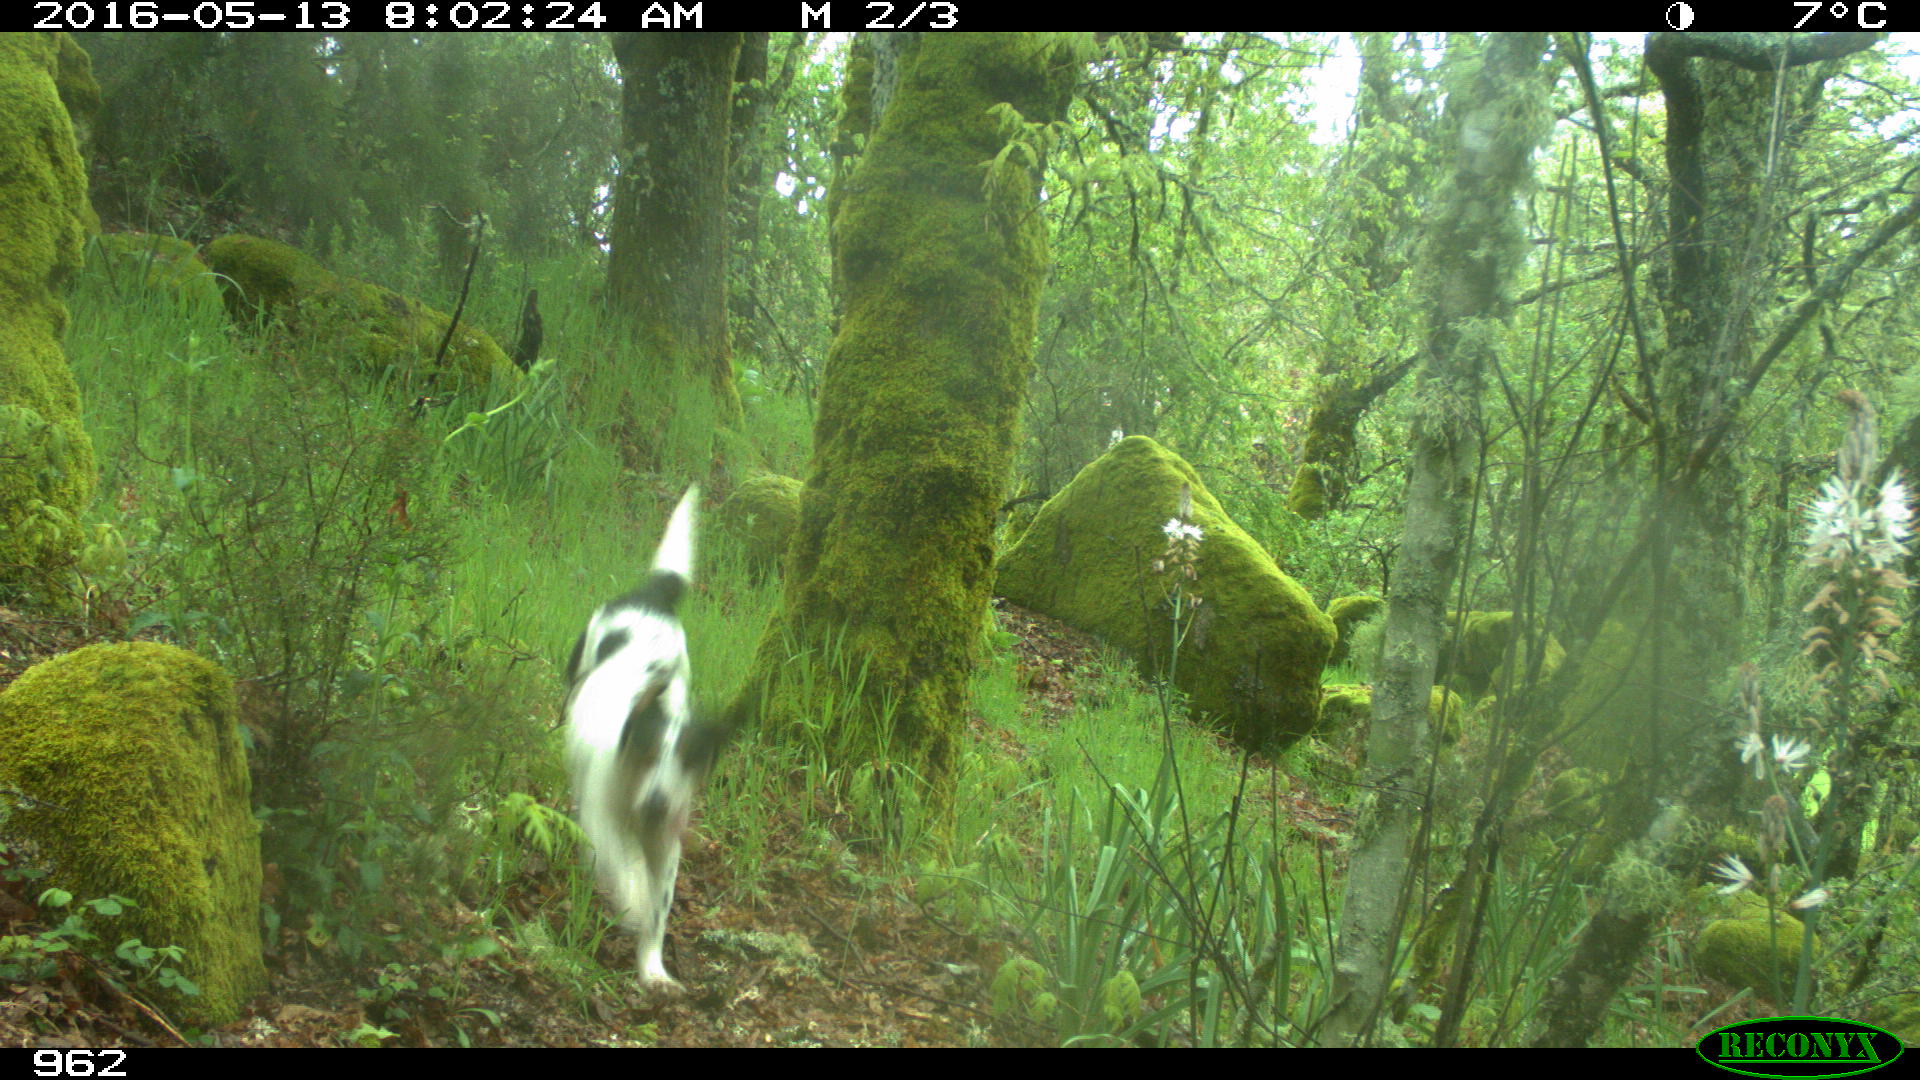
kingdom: Animalia
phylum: Chordata
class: Mammalia
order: Carnivora
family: Canidae
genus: Canis
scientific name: Canis lupus
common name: Gray wolf
